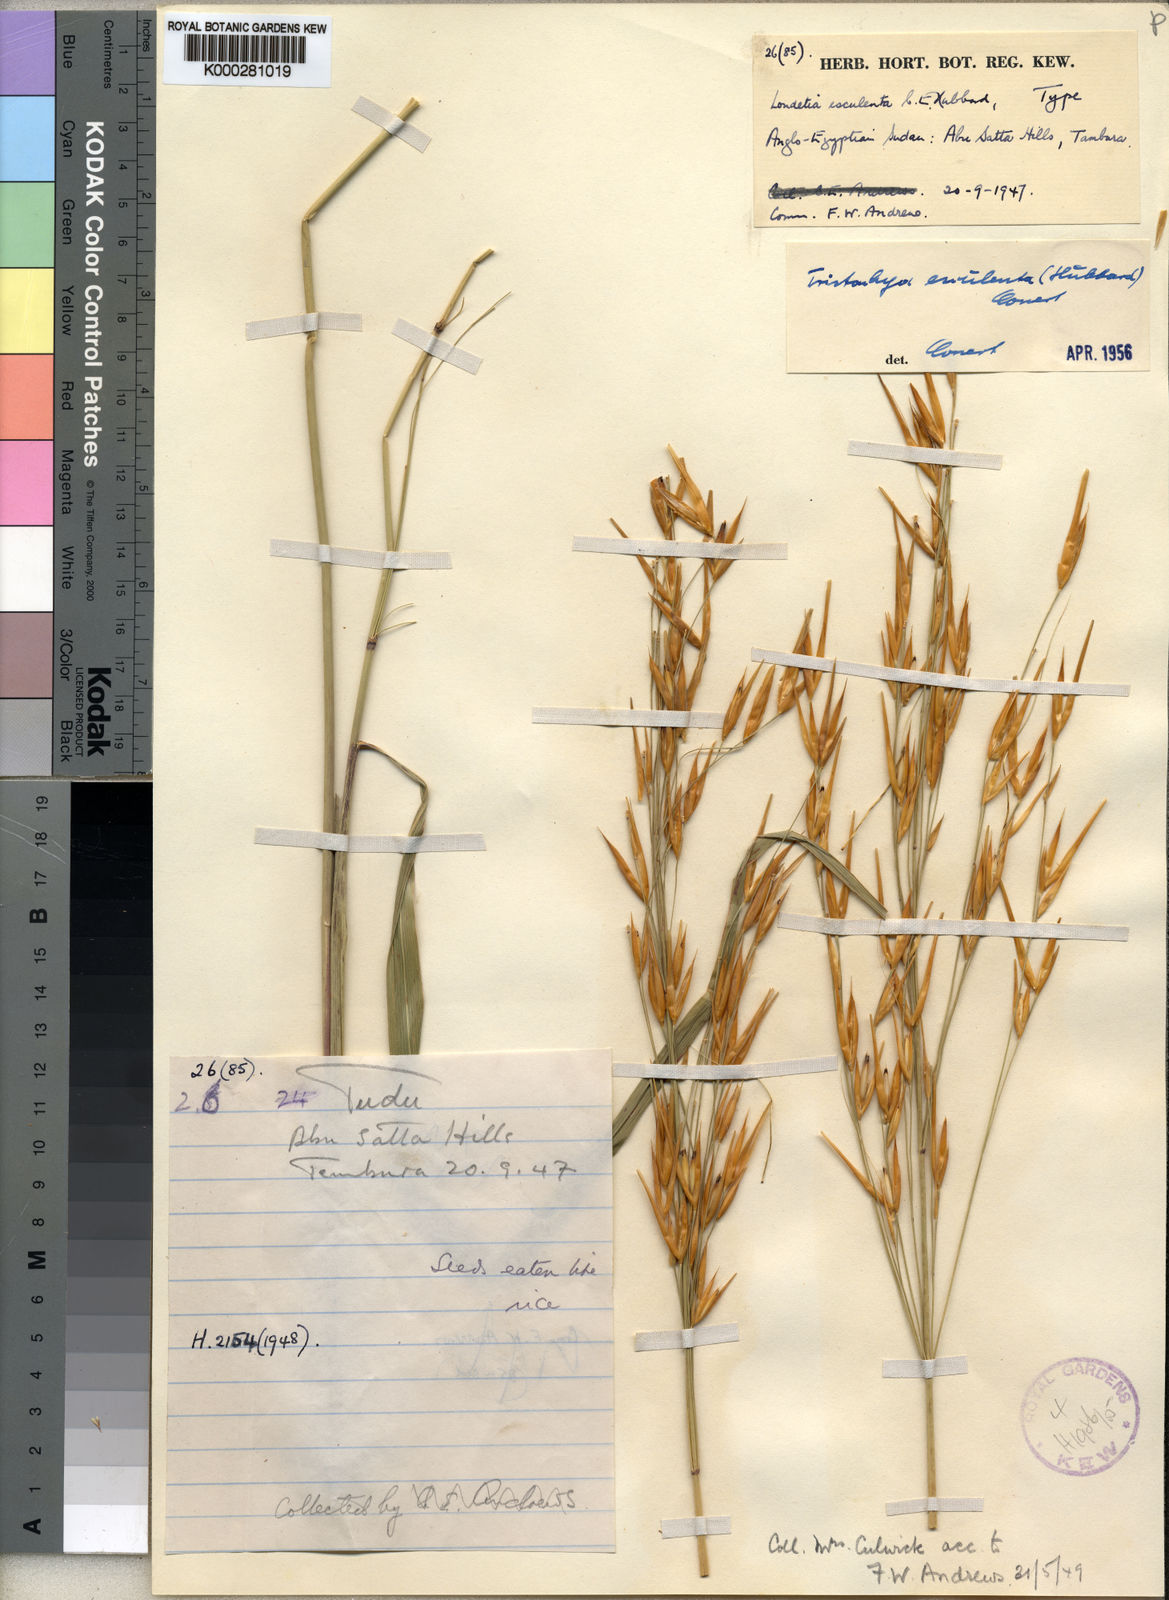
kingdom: Plantae
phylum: Tracheophyta
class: Liliopsida
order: Poales
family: Poaceae
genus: Loudetia
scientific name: Loudetia esculenta
